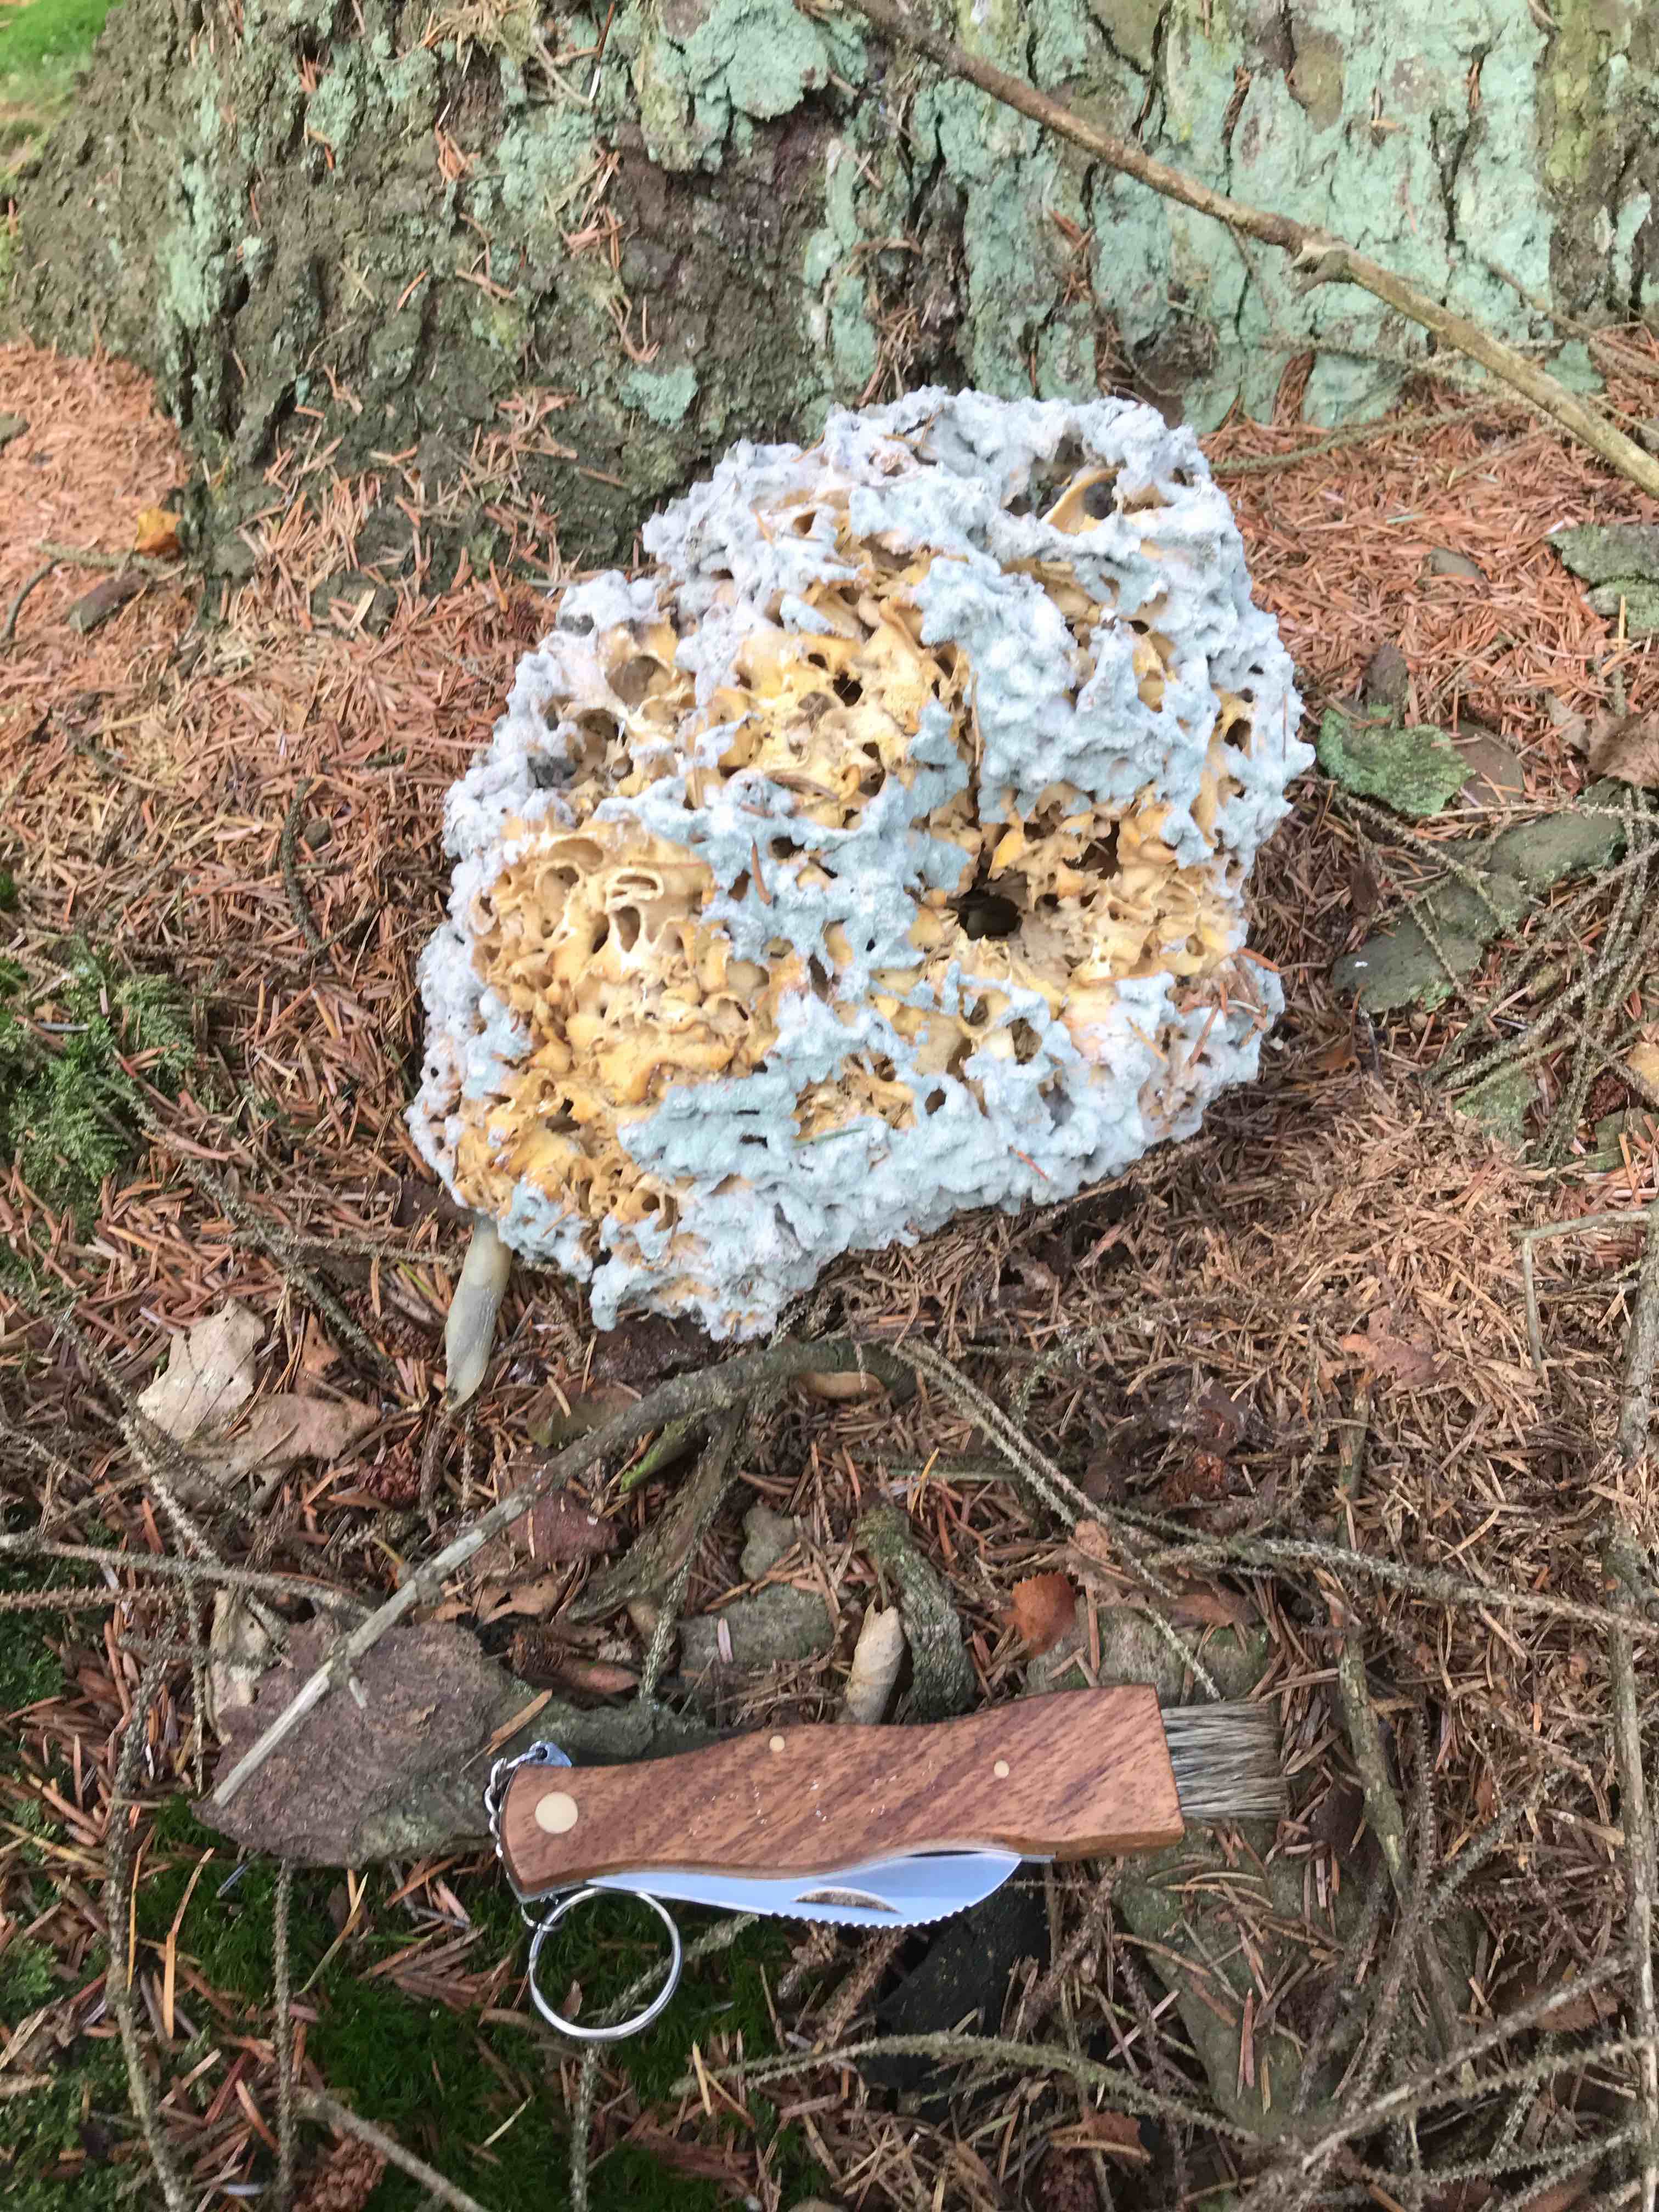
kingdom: Fungi
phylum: Basidiomycota
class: Agaricomycetes
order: Polyporales
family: Sparassidaceae
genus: Sparassis
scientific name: Sparassis crispa
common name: kruset blomkålssvamp
